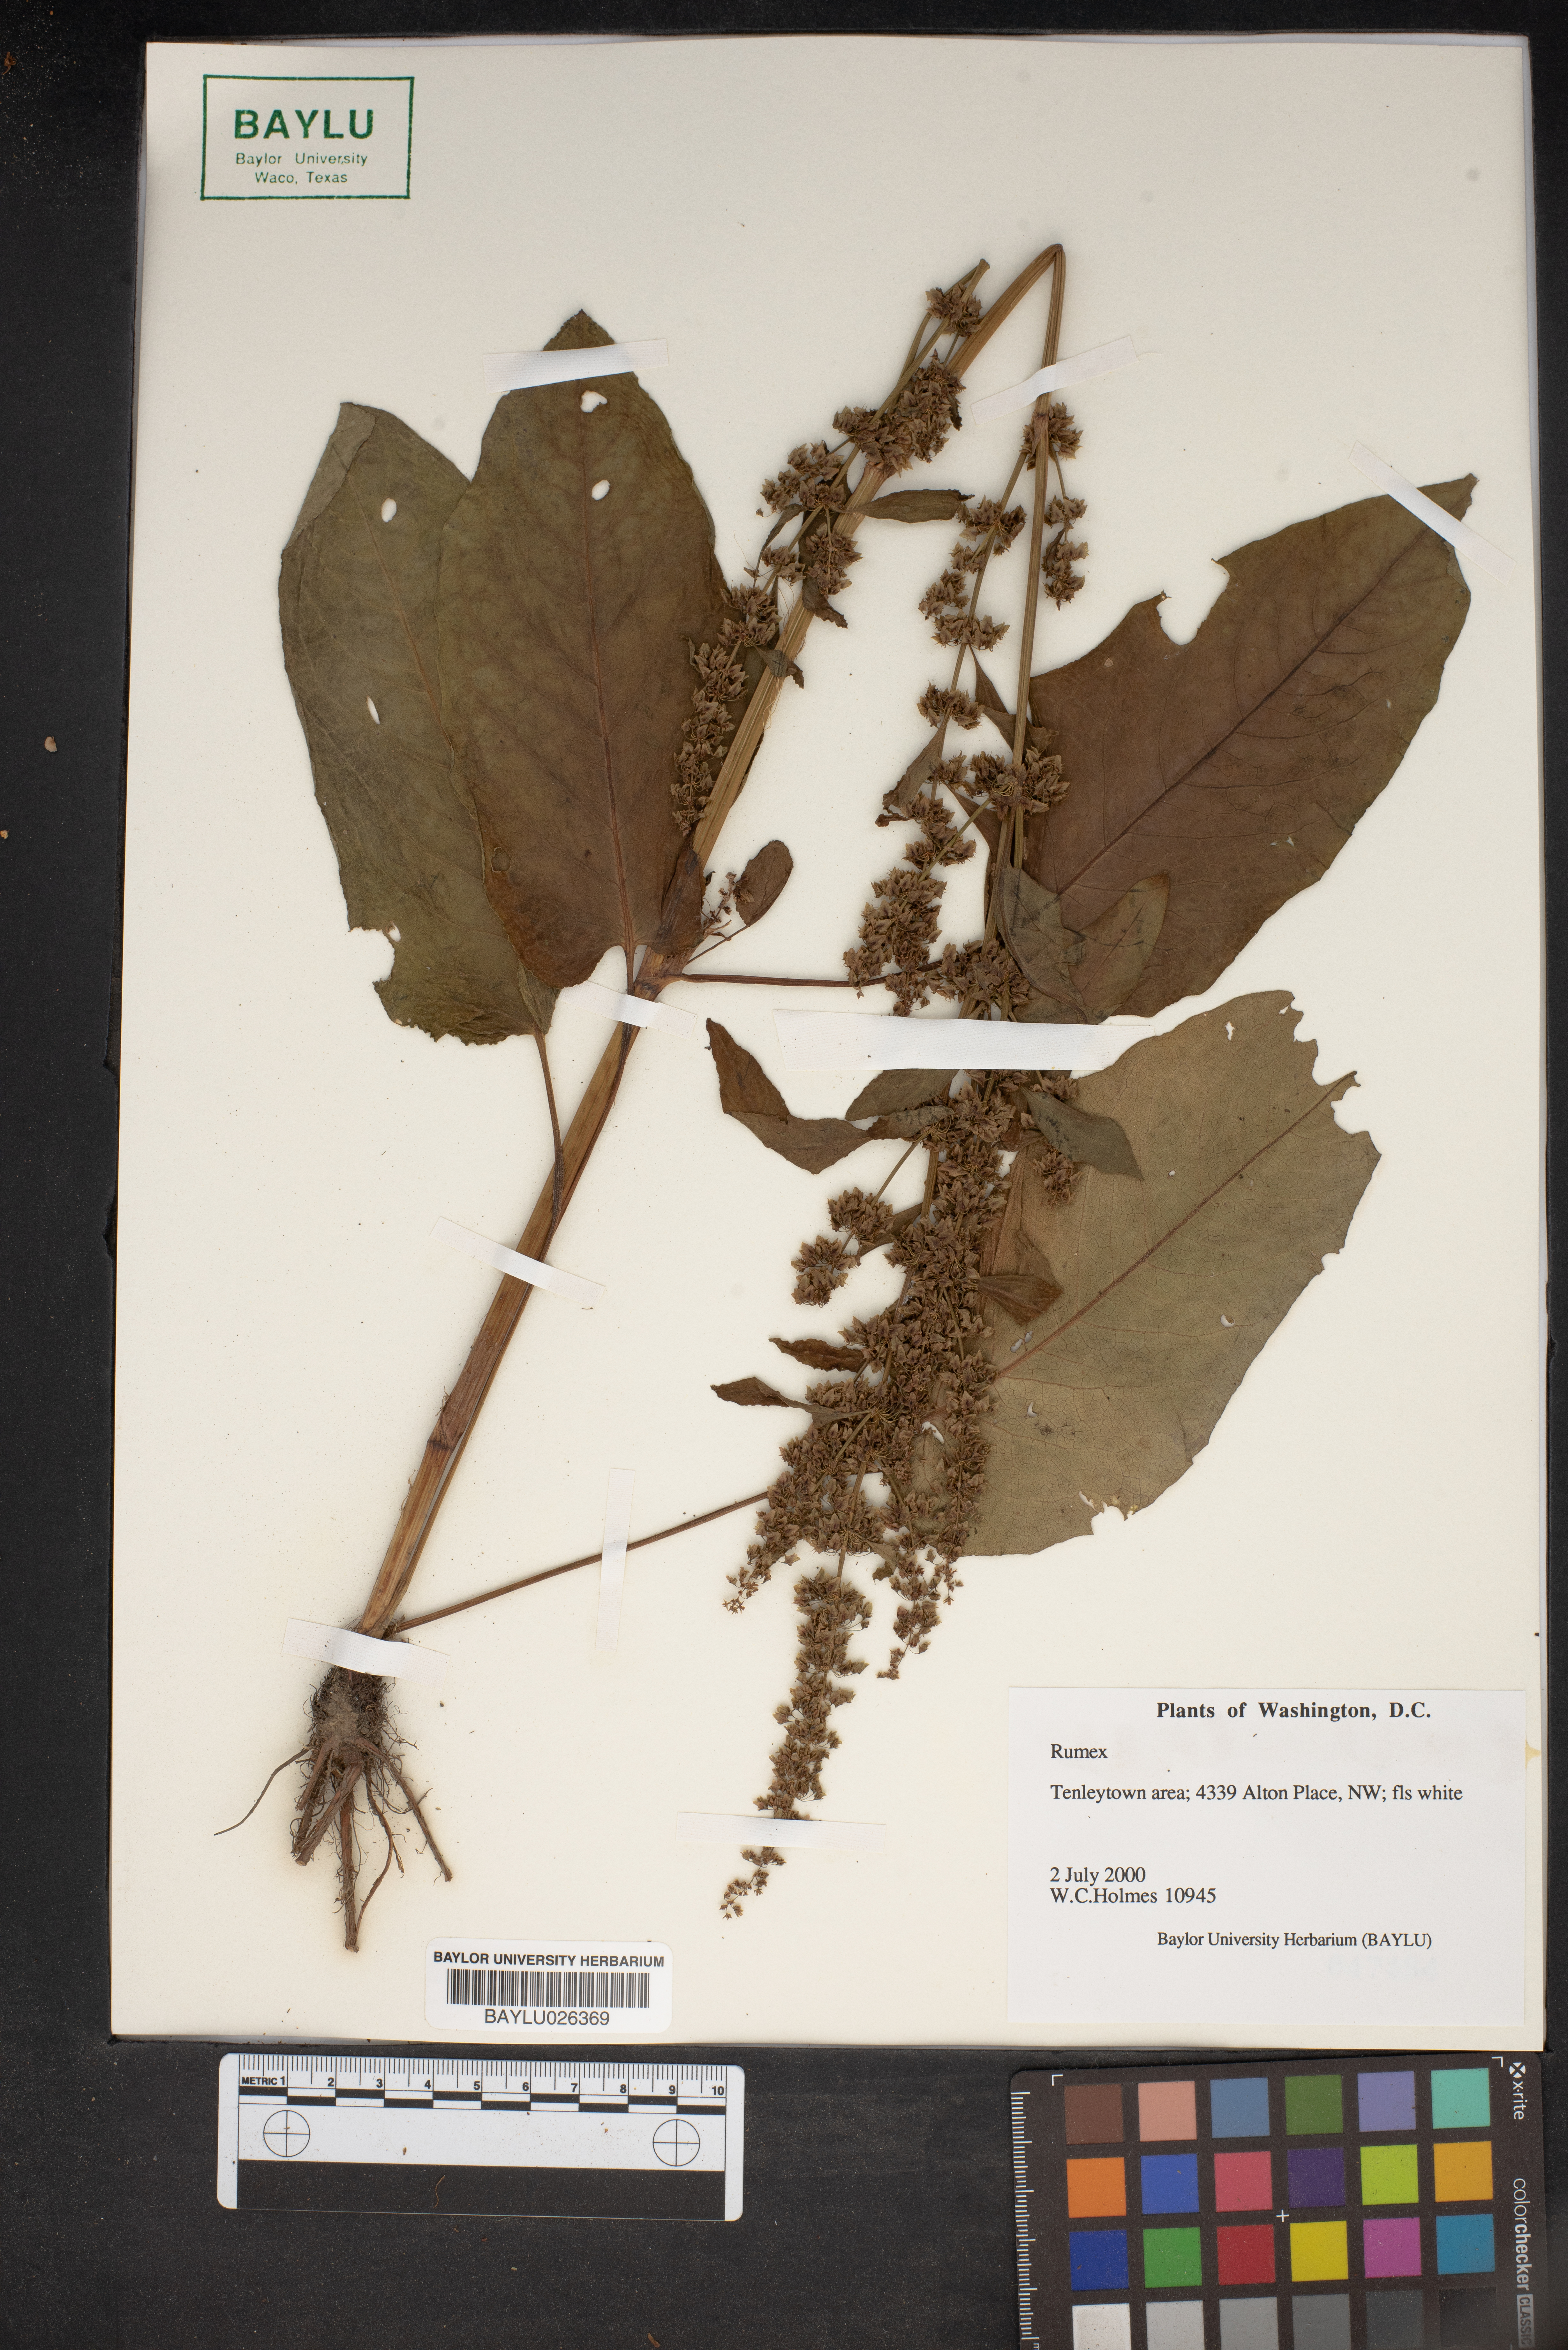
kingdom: Plantae
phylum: Tracheophyta
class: Magnoliopsida
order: Caryophyllales
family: Polygonaceae
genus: Rumex
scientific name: Rumex
